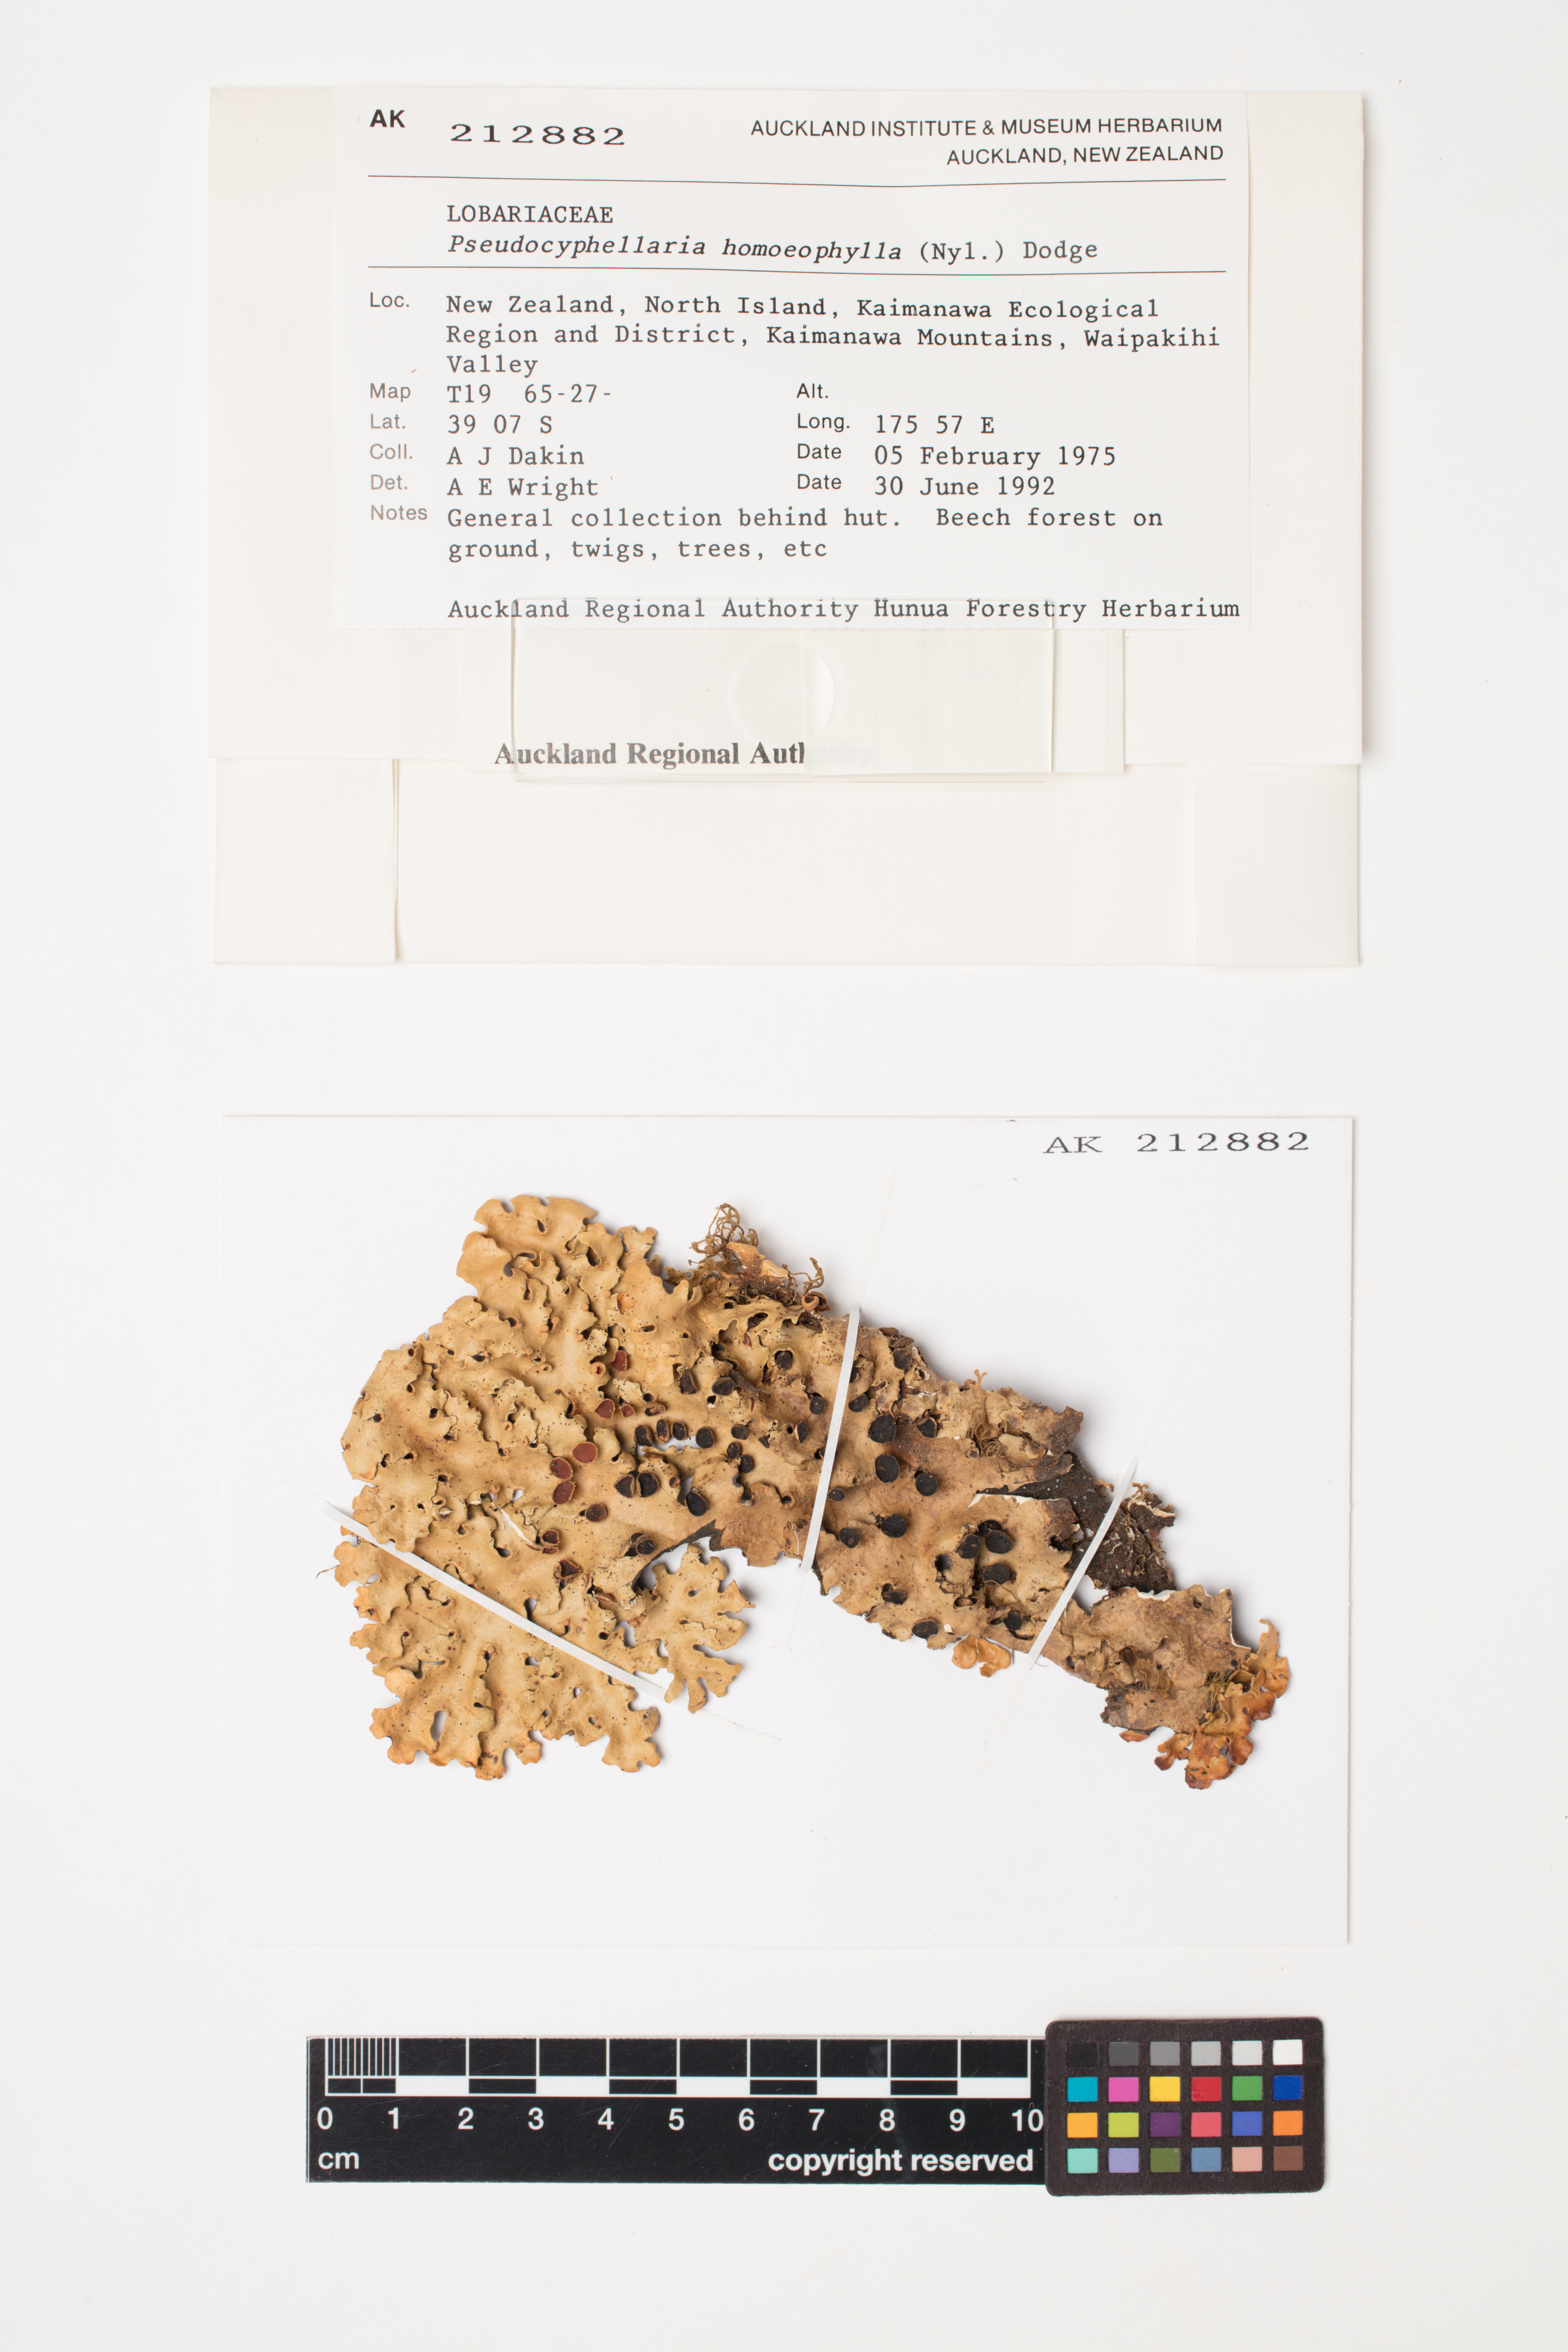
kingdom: Fungi
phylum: Ascomycota
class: Lecanoromycetes
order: Peltigerales
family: Lobariaceae
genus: Pseudocyphellaria
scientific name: Pseudocyphellaria homeophylla
